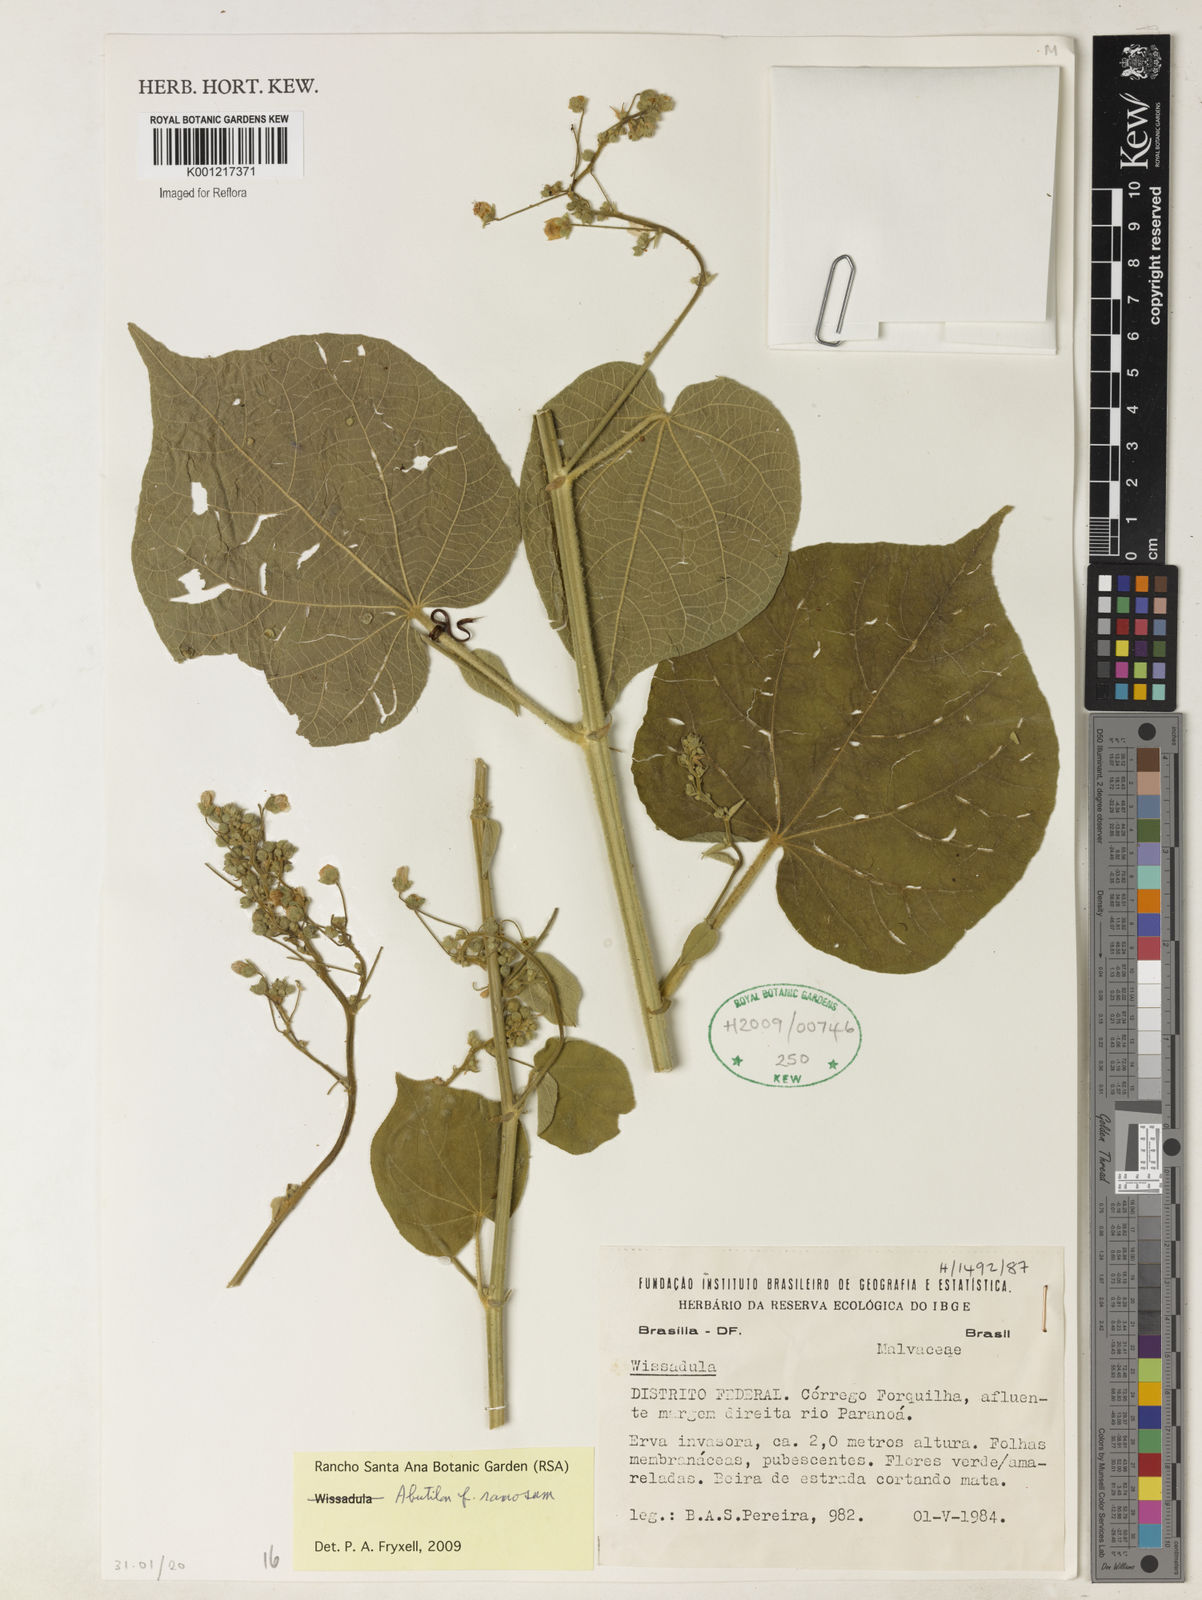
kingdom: Plantae
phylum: Tracheophyta
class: Magnoliopsida
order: Malvales
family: Malvaceae
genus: Abutilon
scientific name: Abutilon ramosum
